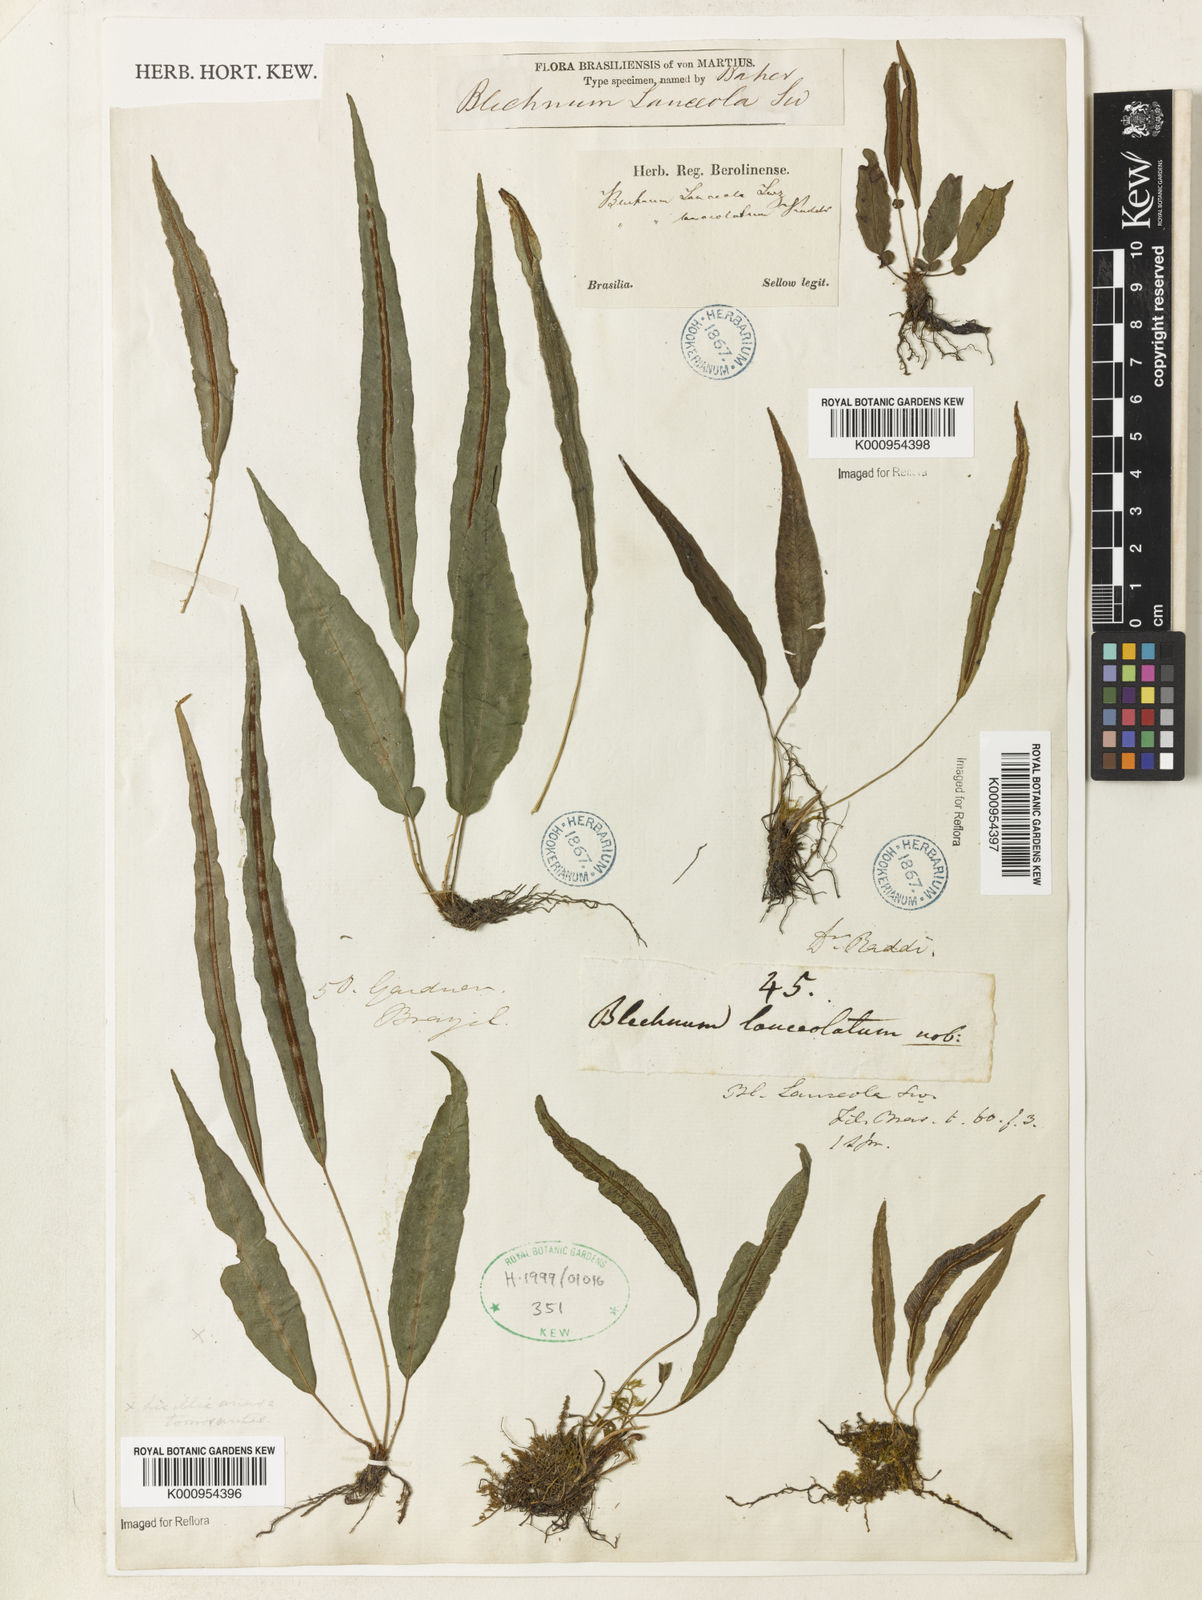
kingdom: Plantae
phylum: Tracheophyta
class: Polypodiopsida
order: Polypodiales
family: Blechnaceae
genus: Blechnum
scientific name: Blechnum lanceola
